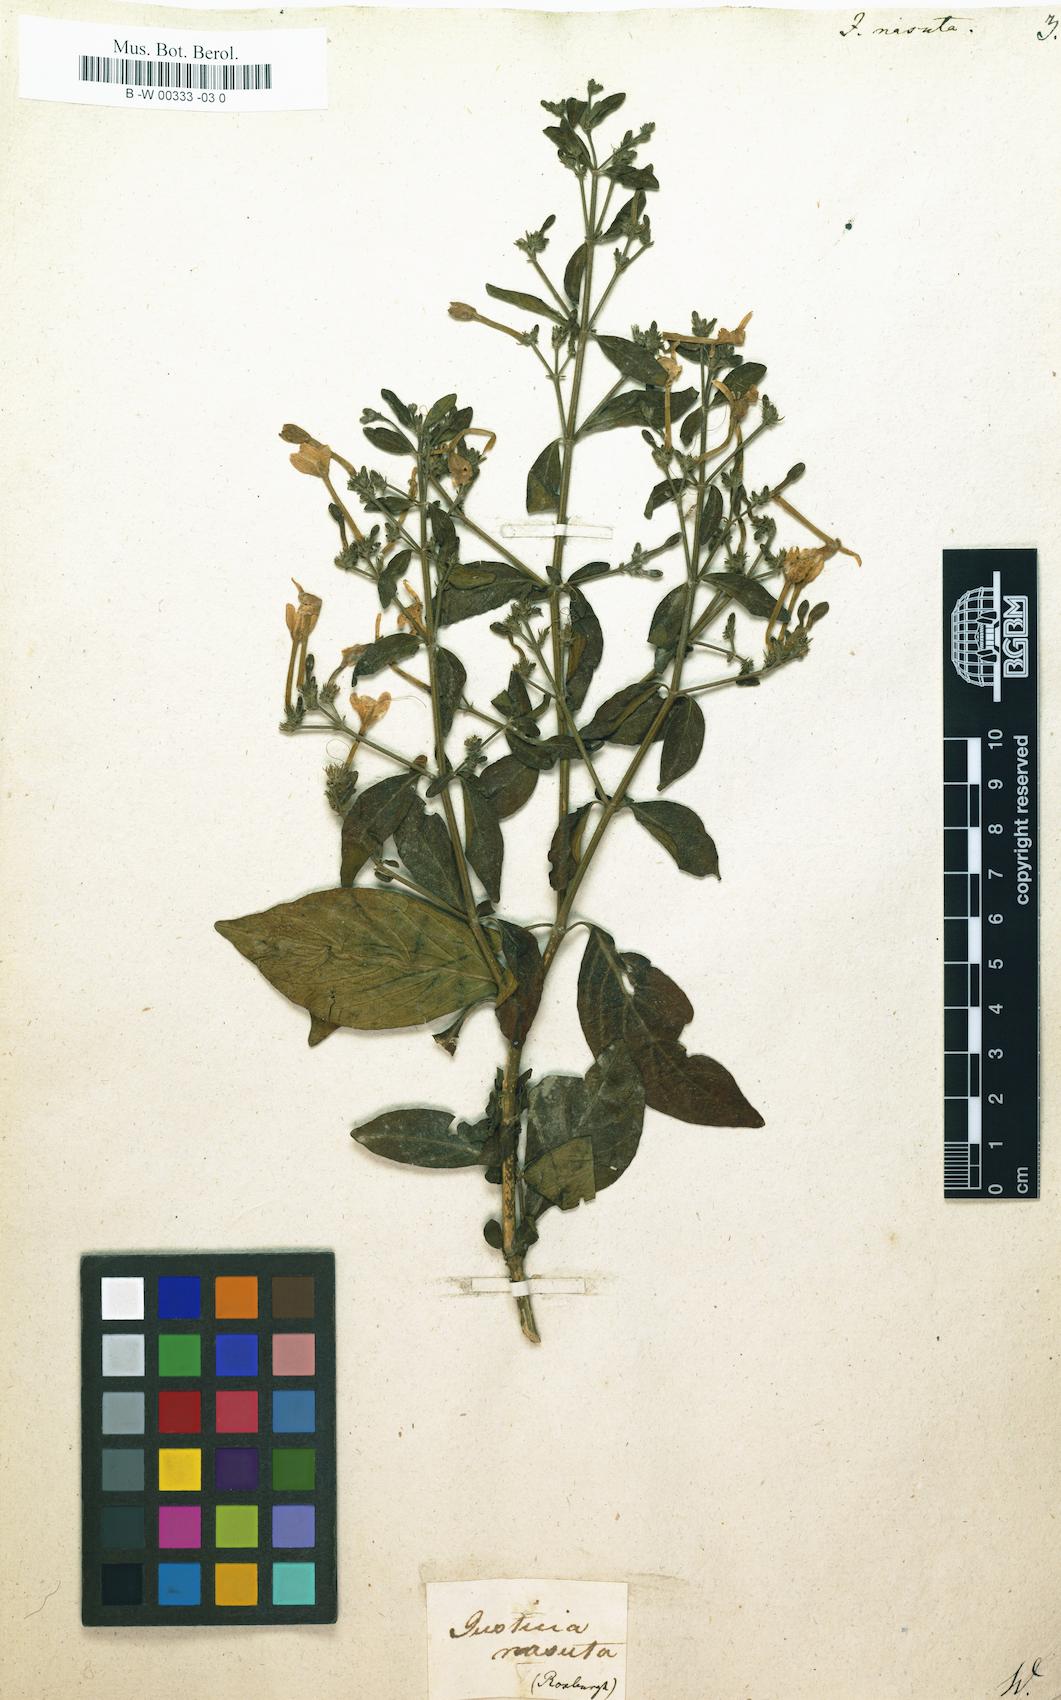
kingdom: Plantae
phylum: Tracheophyta
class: Magnoliopsida
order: Lamiales
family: Acanthaceae
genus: Rhinacanthus
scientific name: Rhinacanthus nasutus
